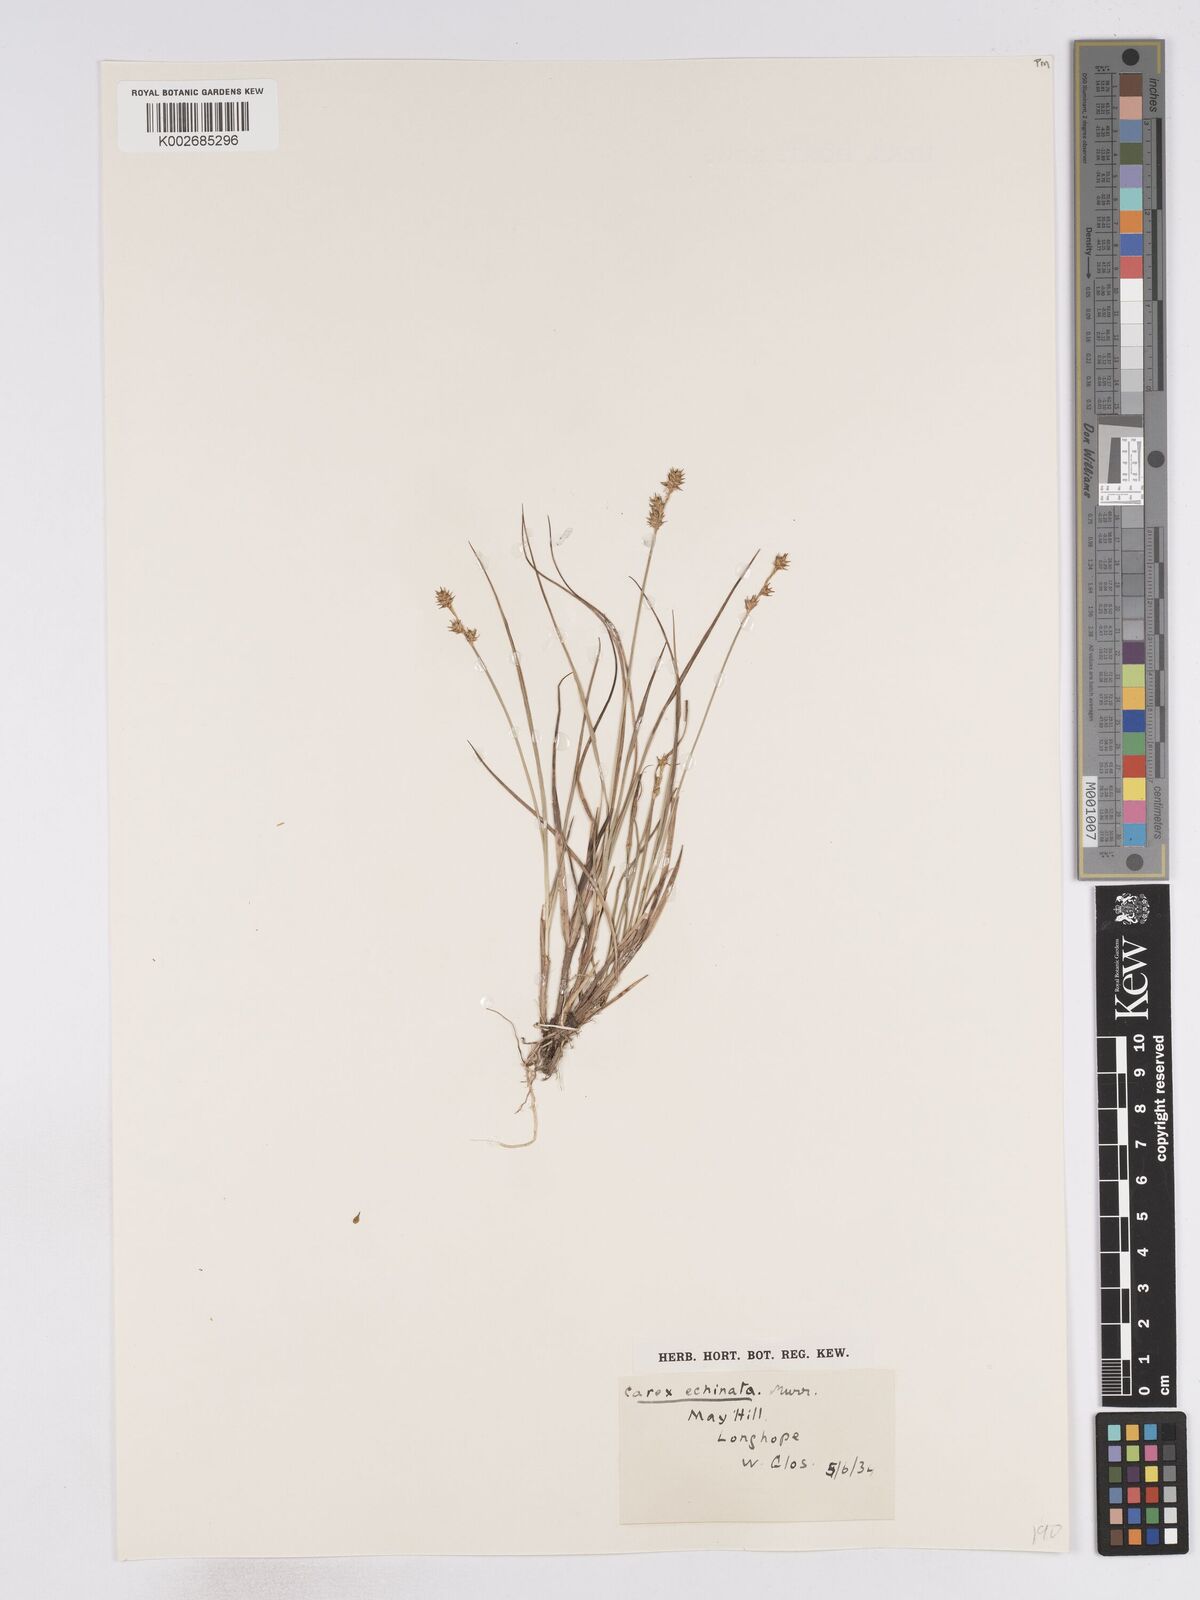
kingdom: Plantae
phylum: Tracheophyta
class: Liliopsida
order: Poales
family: Cyperaceae
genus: Carex
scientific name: Carex echinata
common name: Star sedge
